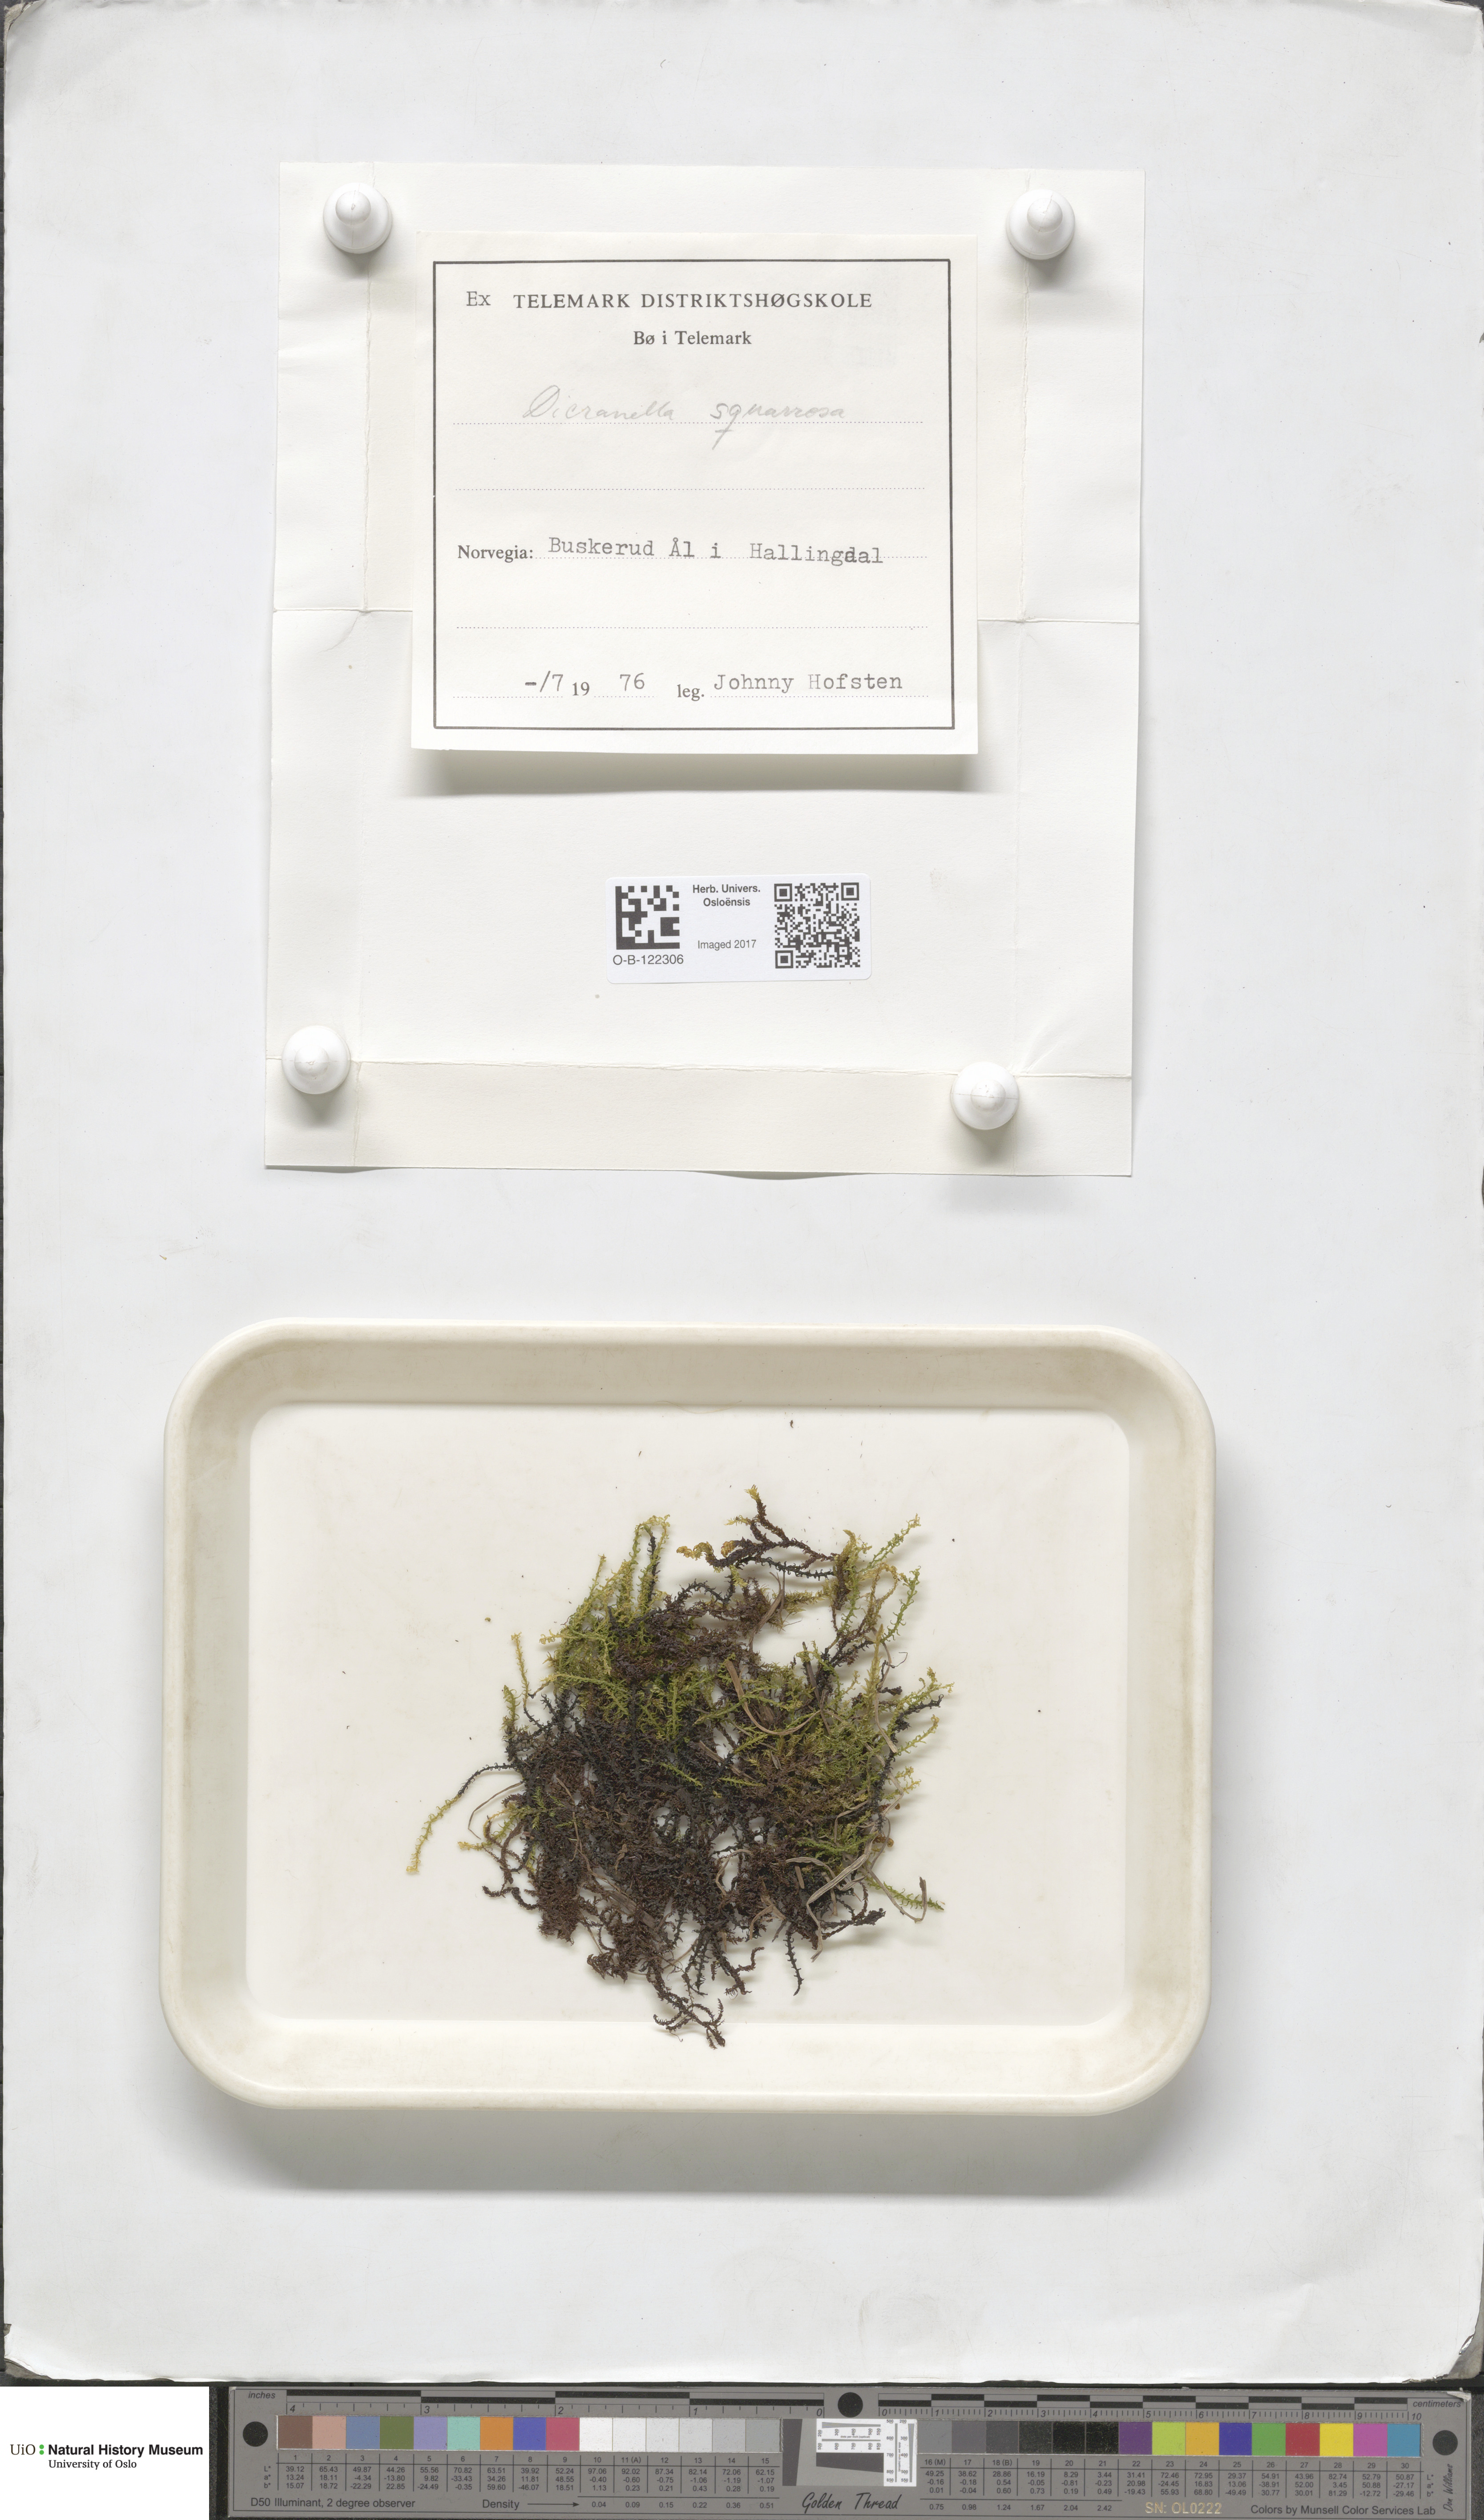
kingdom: Plantae
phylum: Bryophyta
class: Bryopsida
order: Dicranales
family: Aongstroemiaceae
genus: Diobelonella
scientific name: Diobelonella palustris
